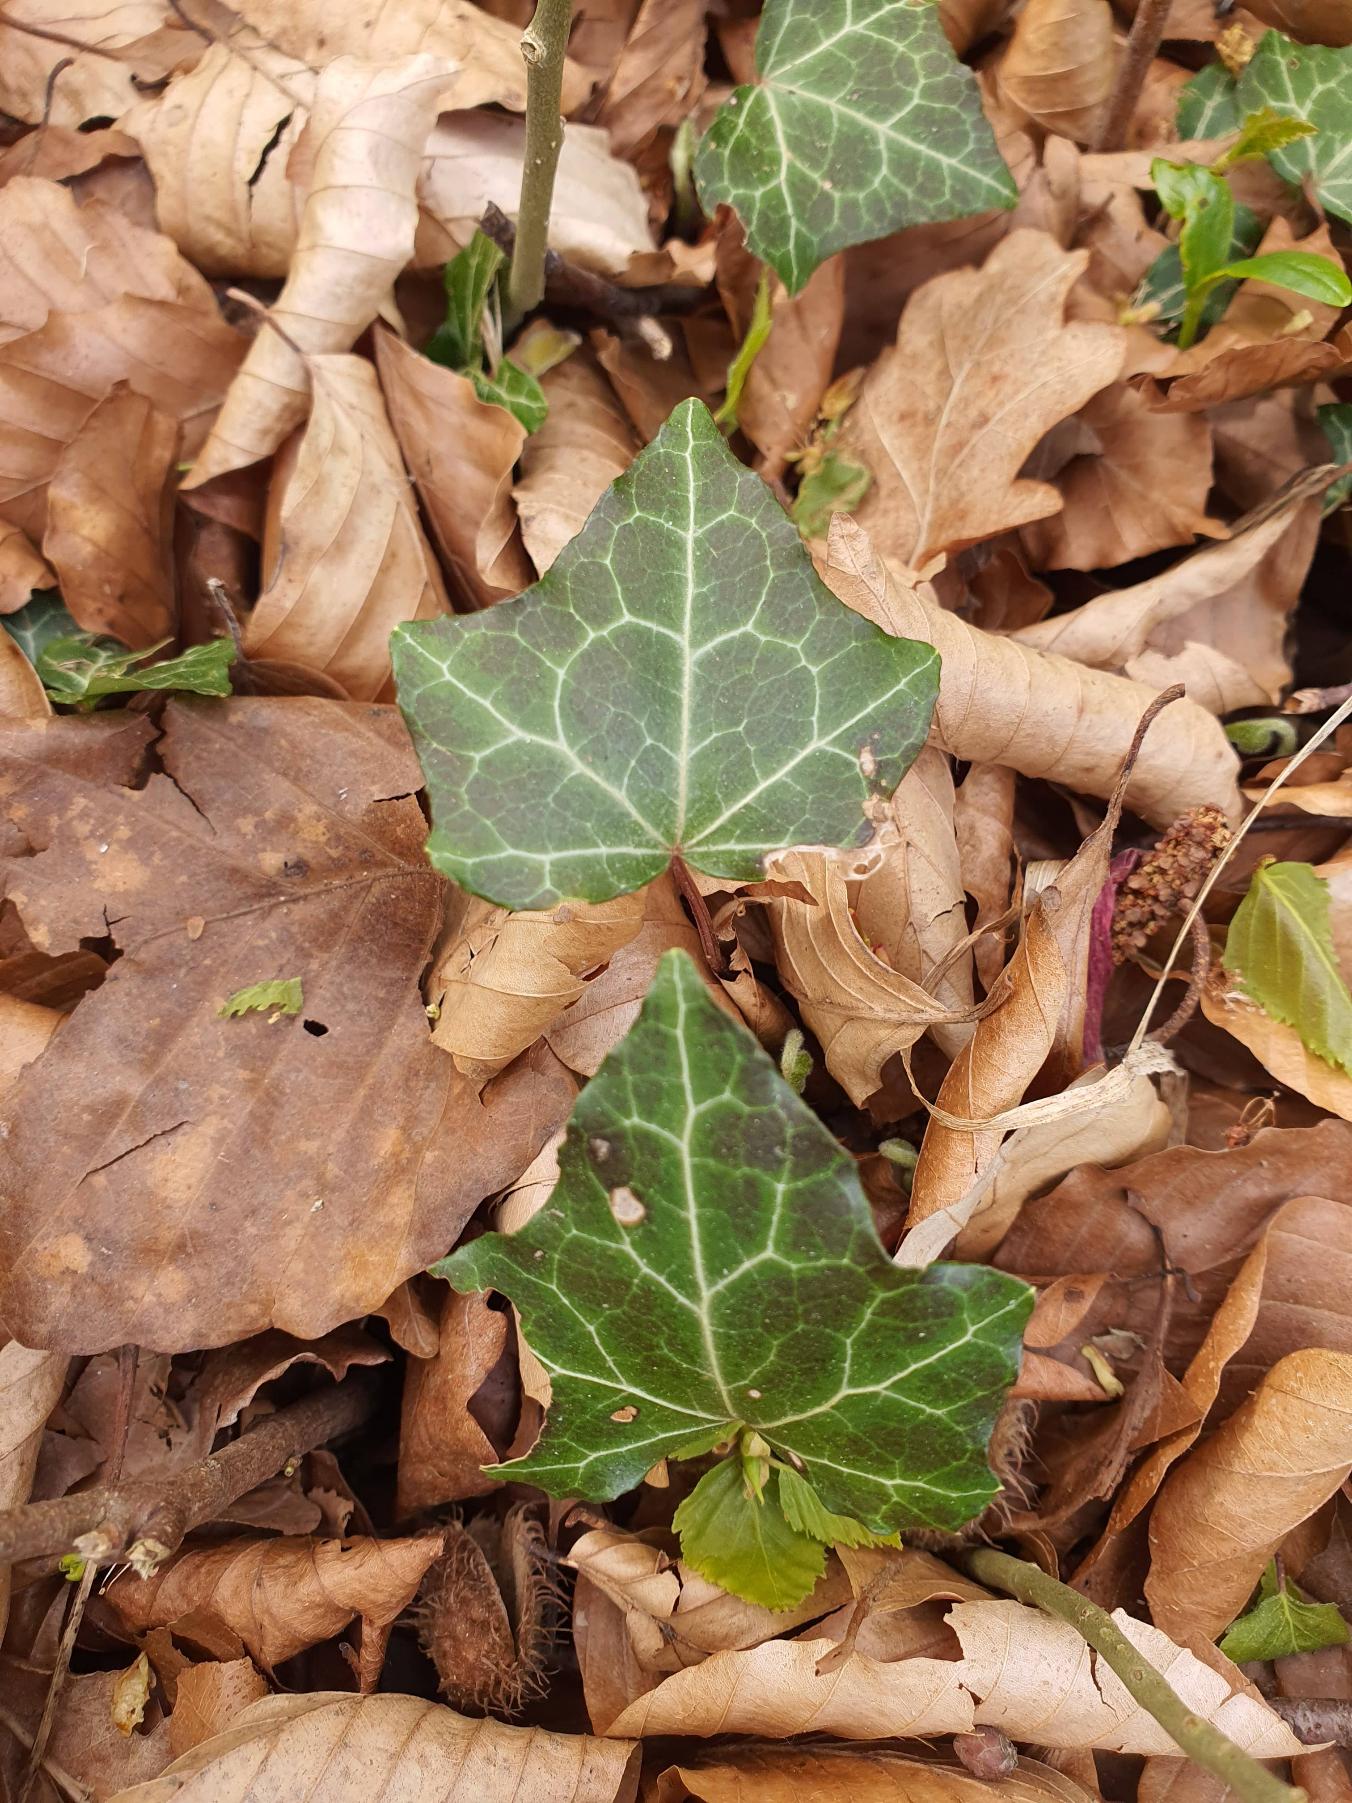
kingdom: Plantae
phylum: Tracheophyta
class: Magnoliopsida
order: Apiales
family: Araliaceae
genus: Hedera
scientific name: Hedera helix
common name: Vedbend
